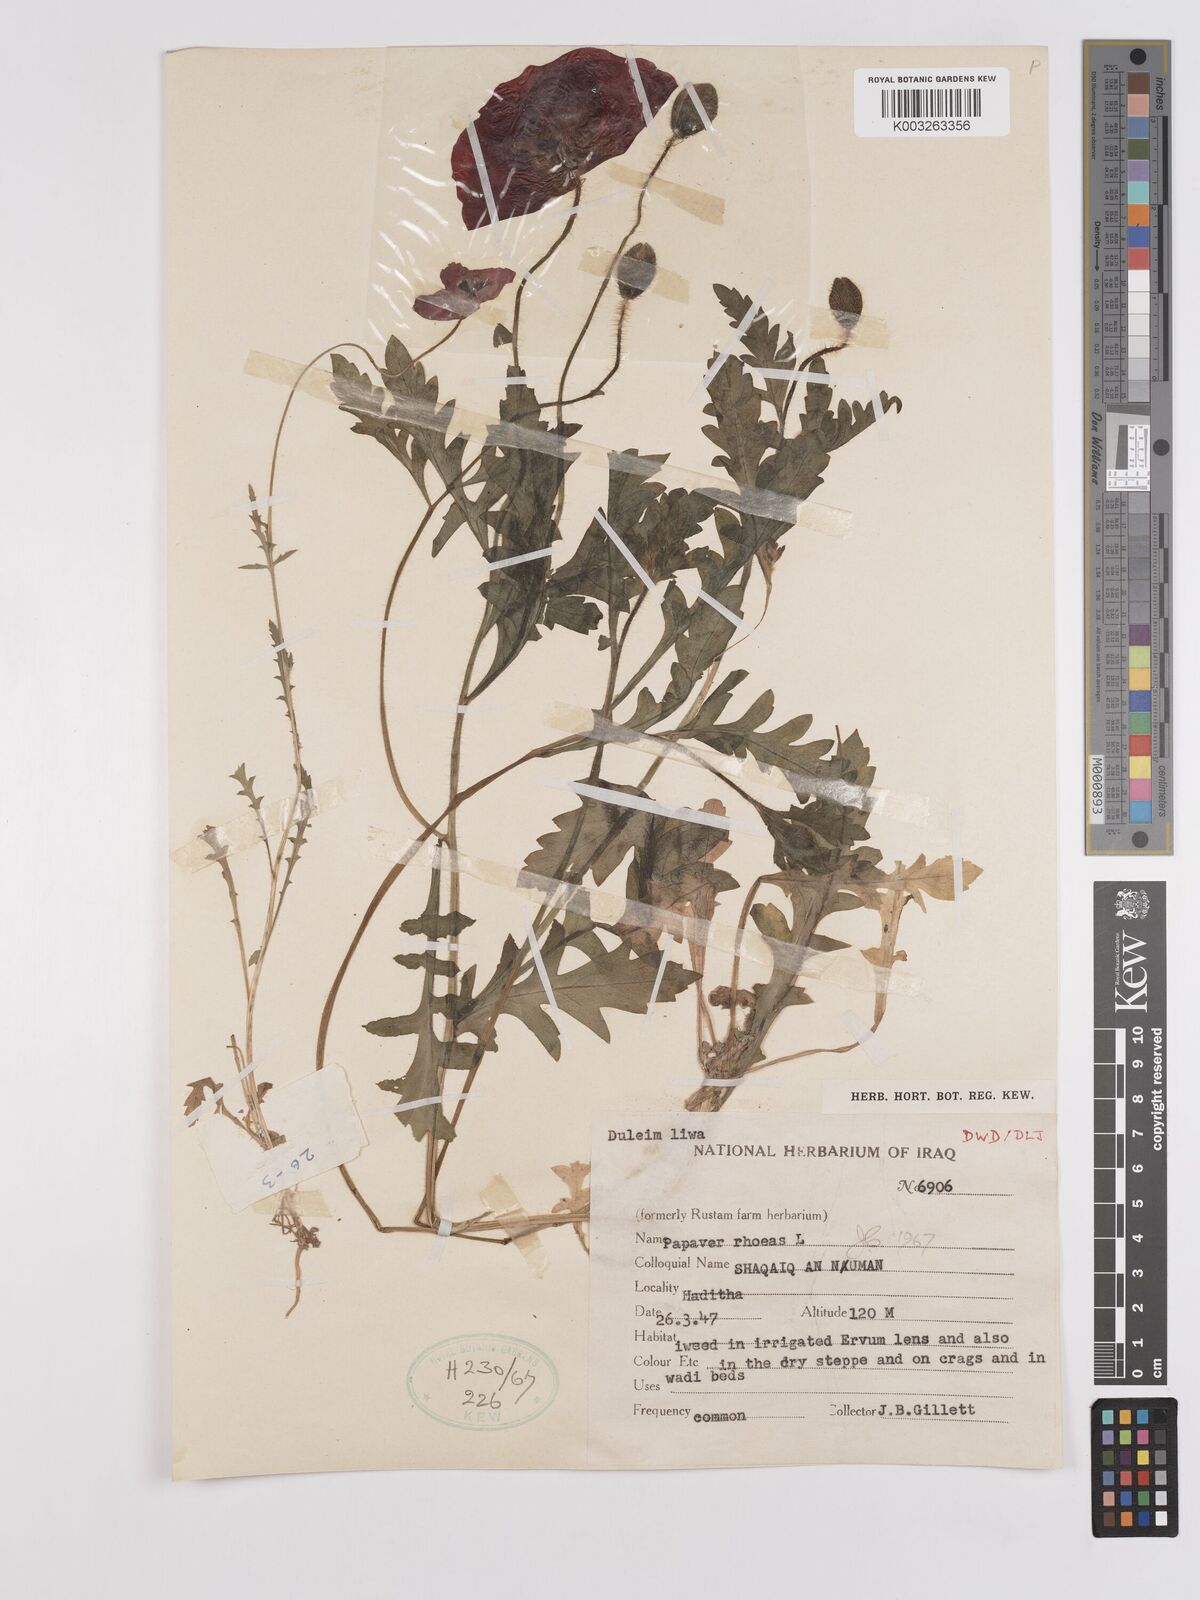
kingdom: Plantae
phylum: Tracheophyta
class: Magnoliopsida
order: Ranunculales
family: Papaveraceae
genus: Papaver
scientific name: Papaver rhoeas
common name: Corn poppy
